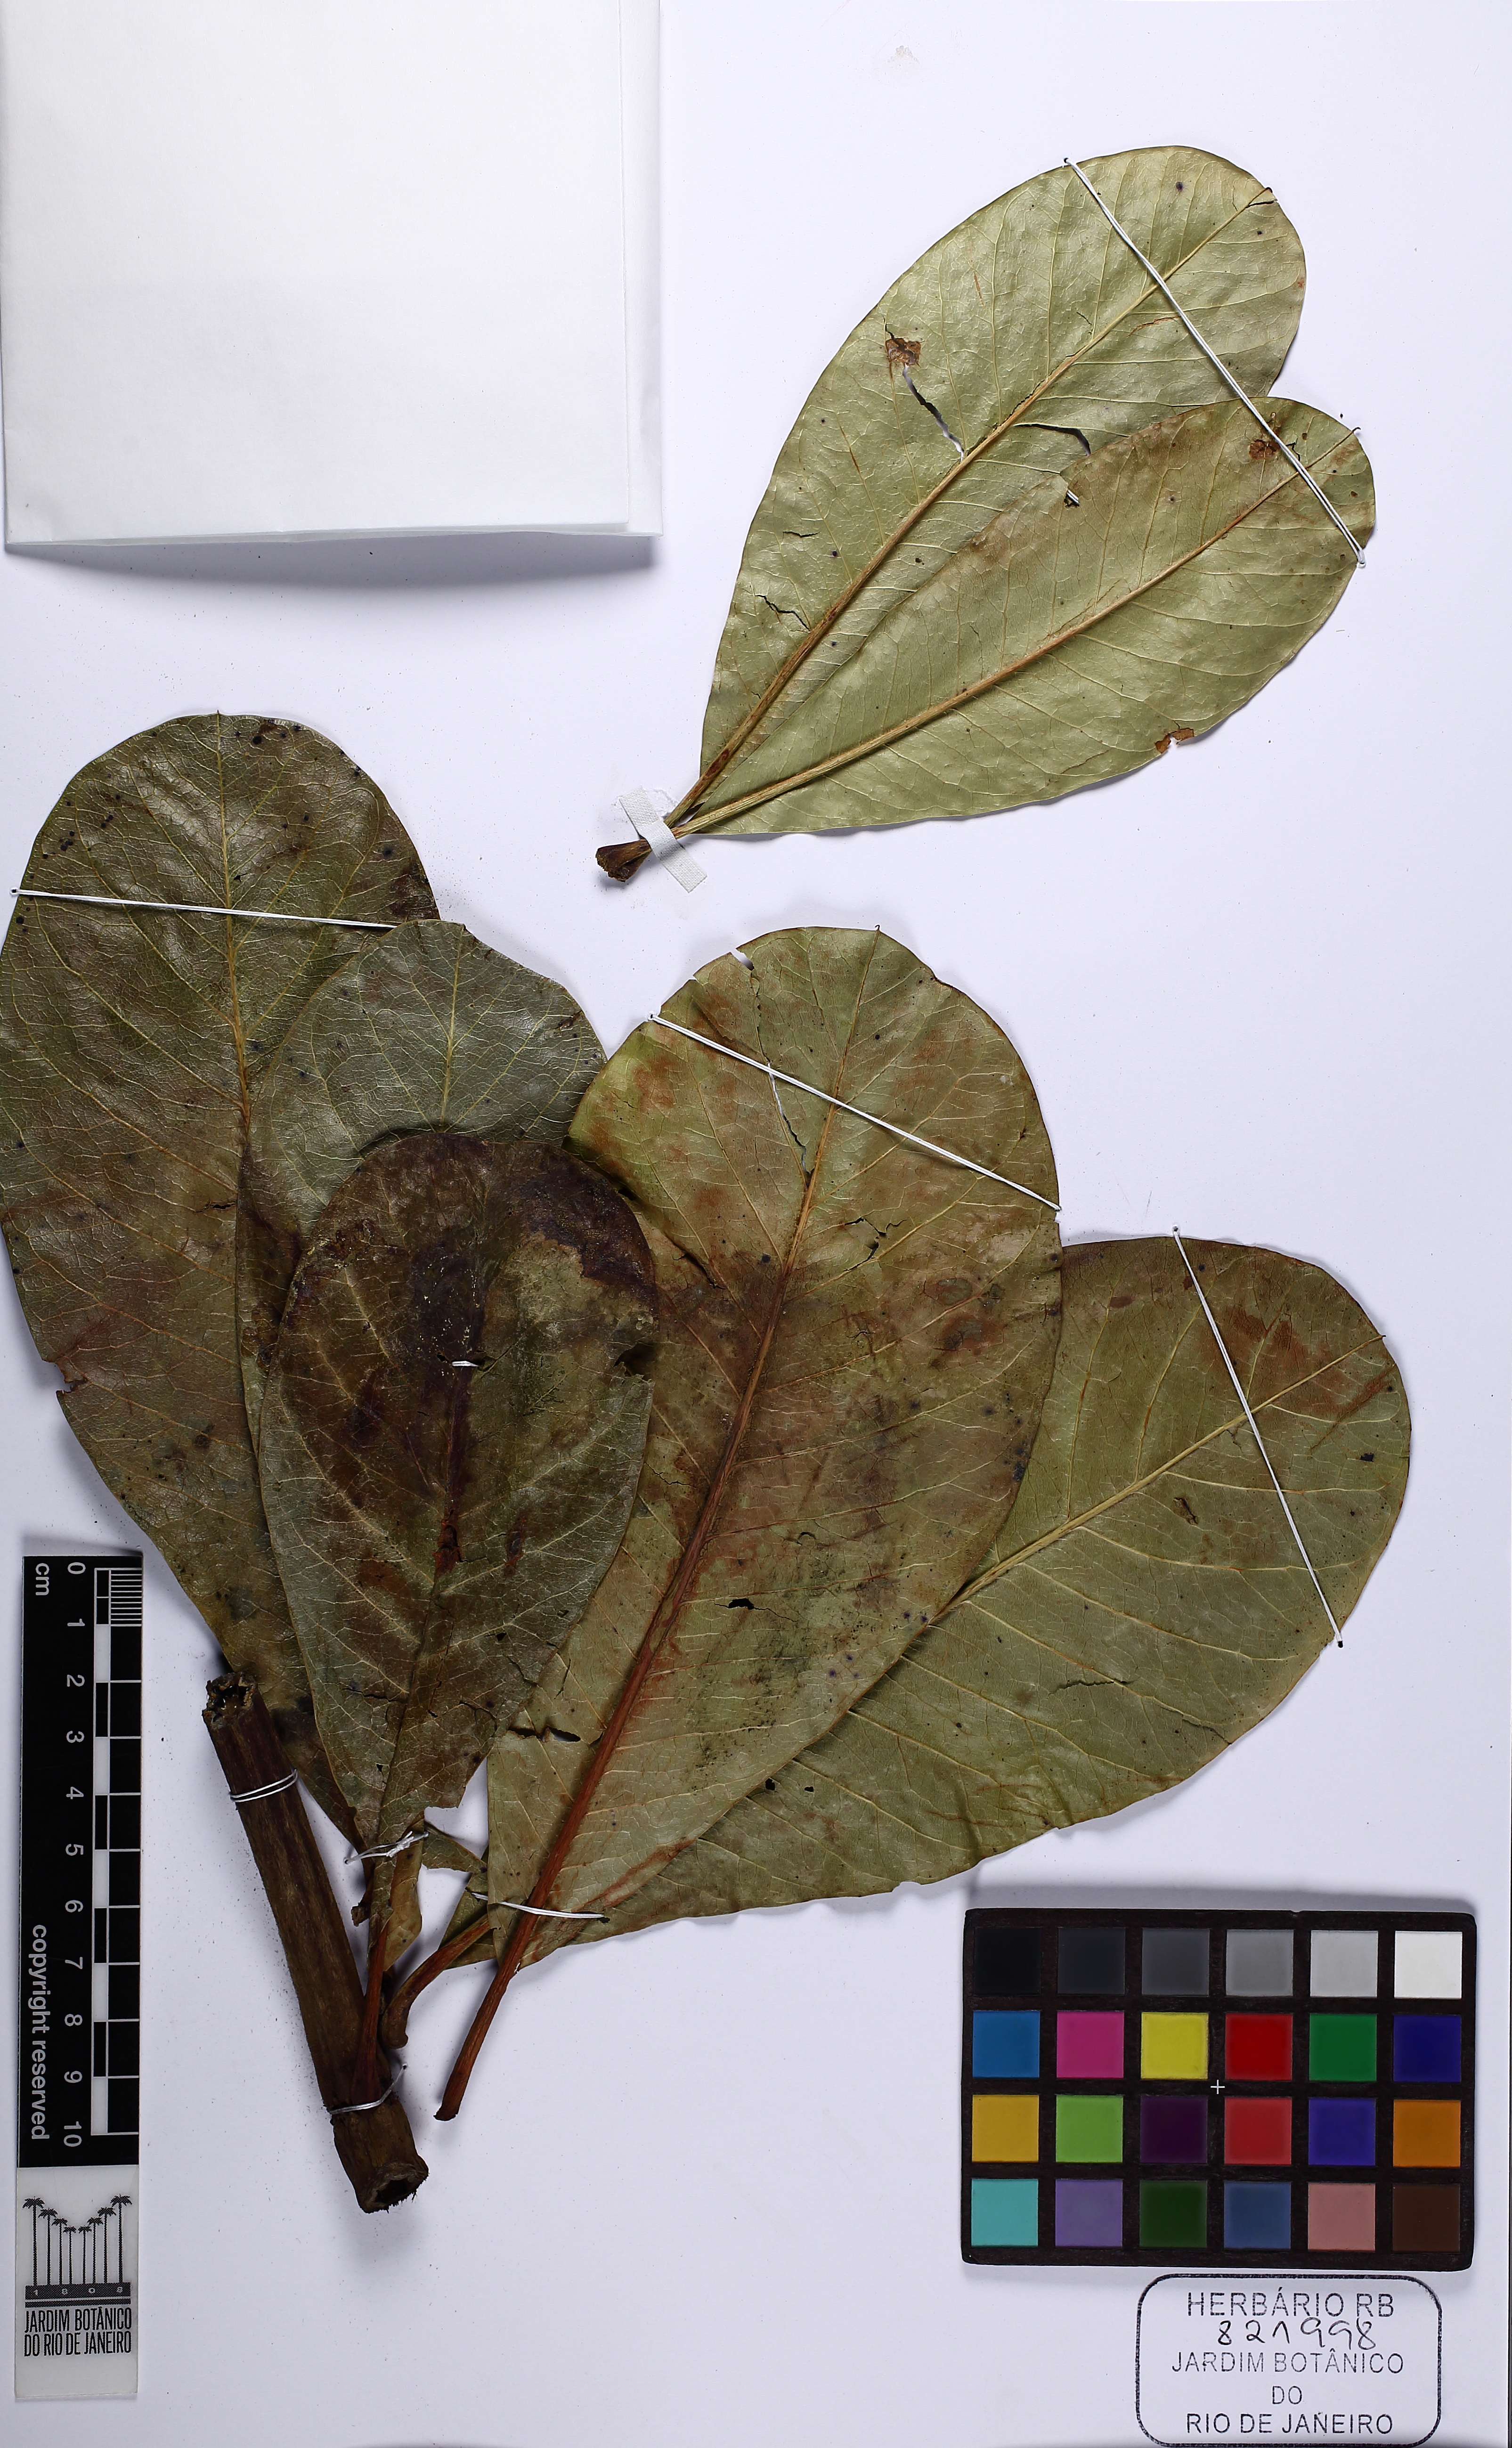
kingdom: Plantae
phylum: Tracheophyta
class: Magnoliopsida
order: Myrtales
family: Vochysiaceae
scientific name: Vochysiaceae
